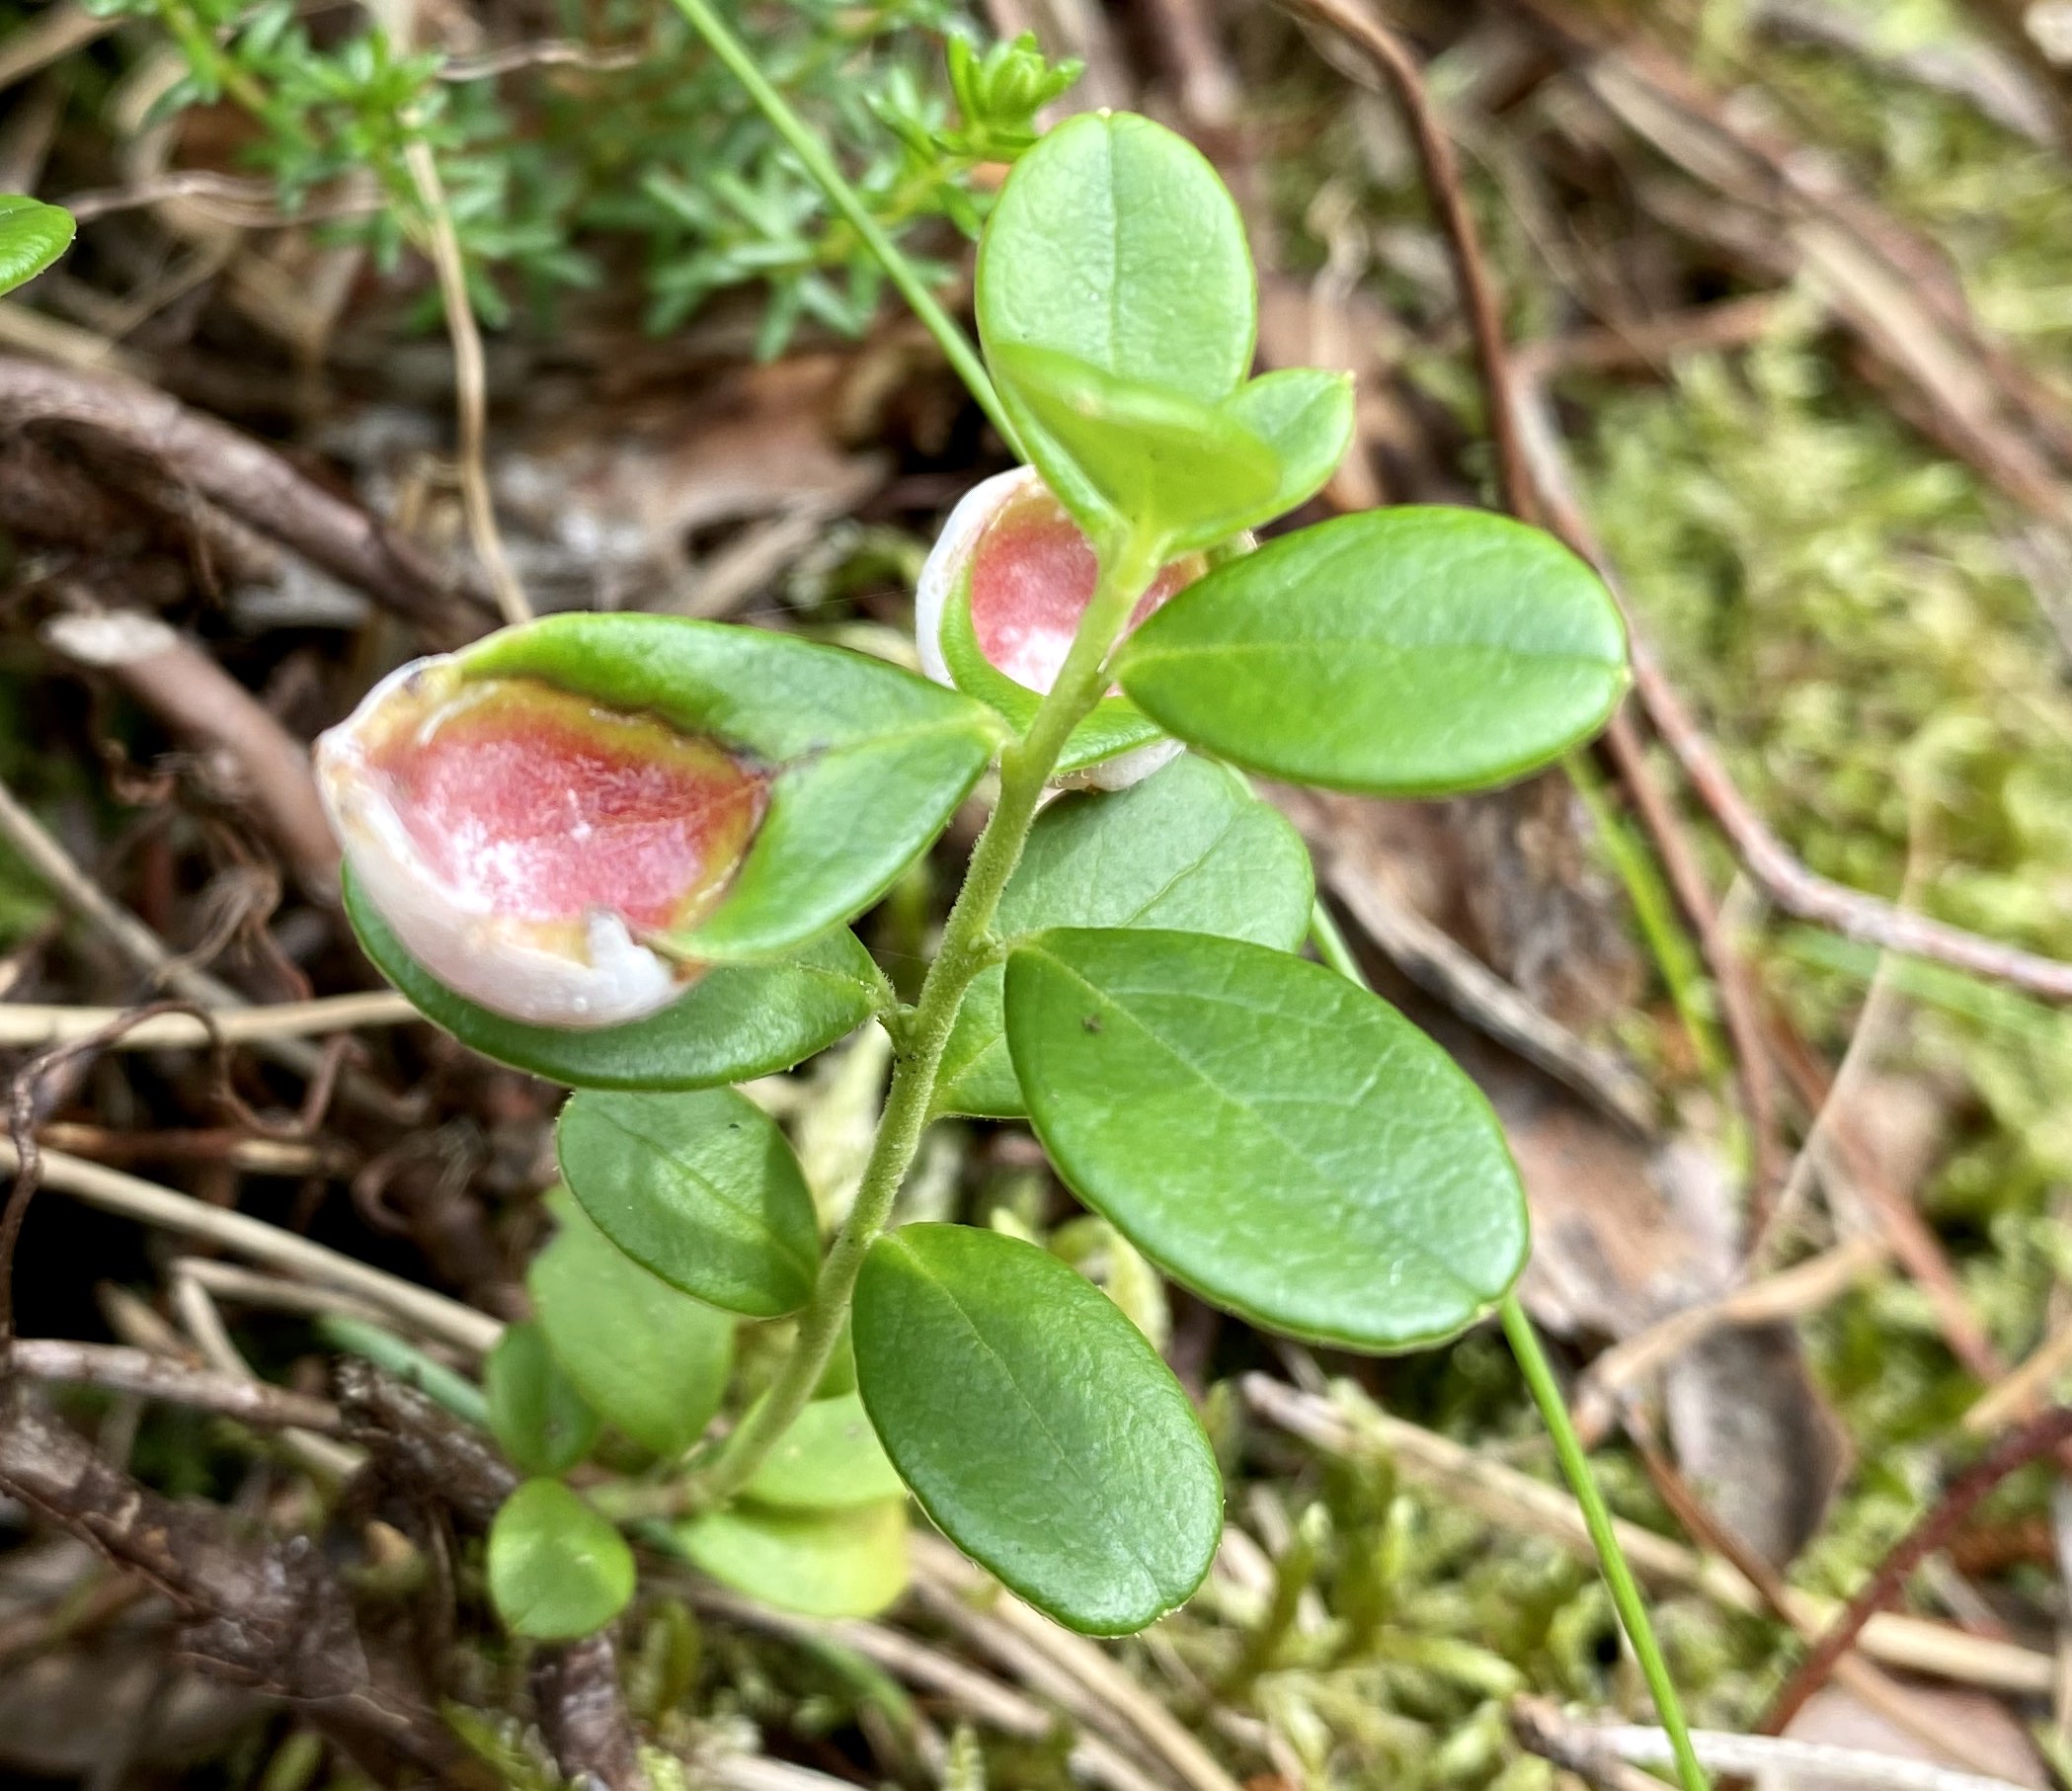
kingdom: Fungi
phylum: Basidiomycota
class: Exobasidiomycetes
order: Exobasidiales
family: Exobasidiaceae
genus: Exobasidium
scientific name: Exobasidium vaccinii
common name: tyttebærblad-bøllesvamp
